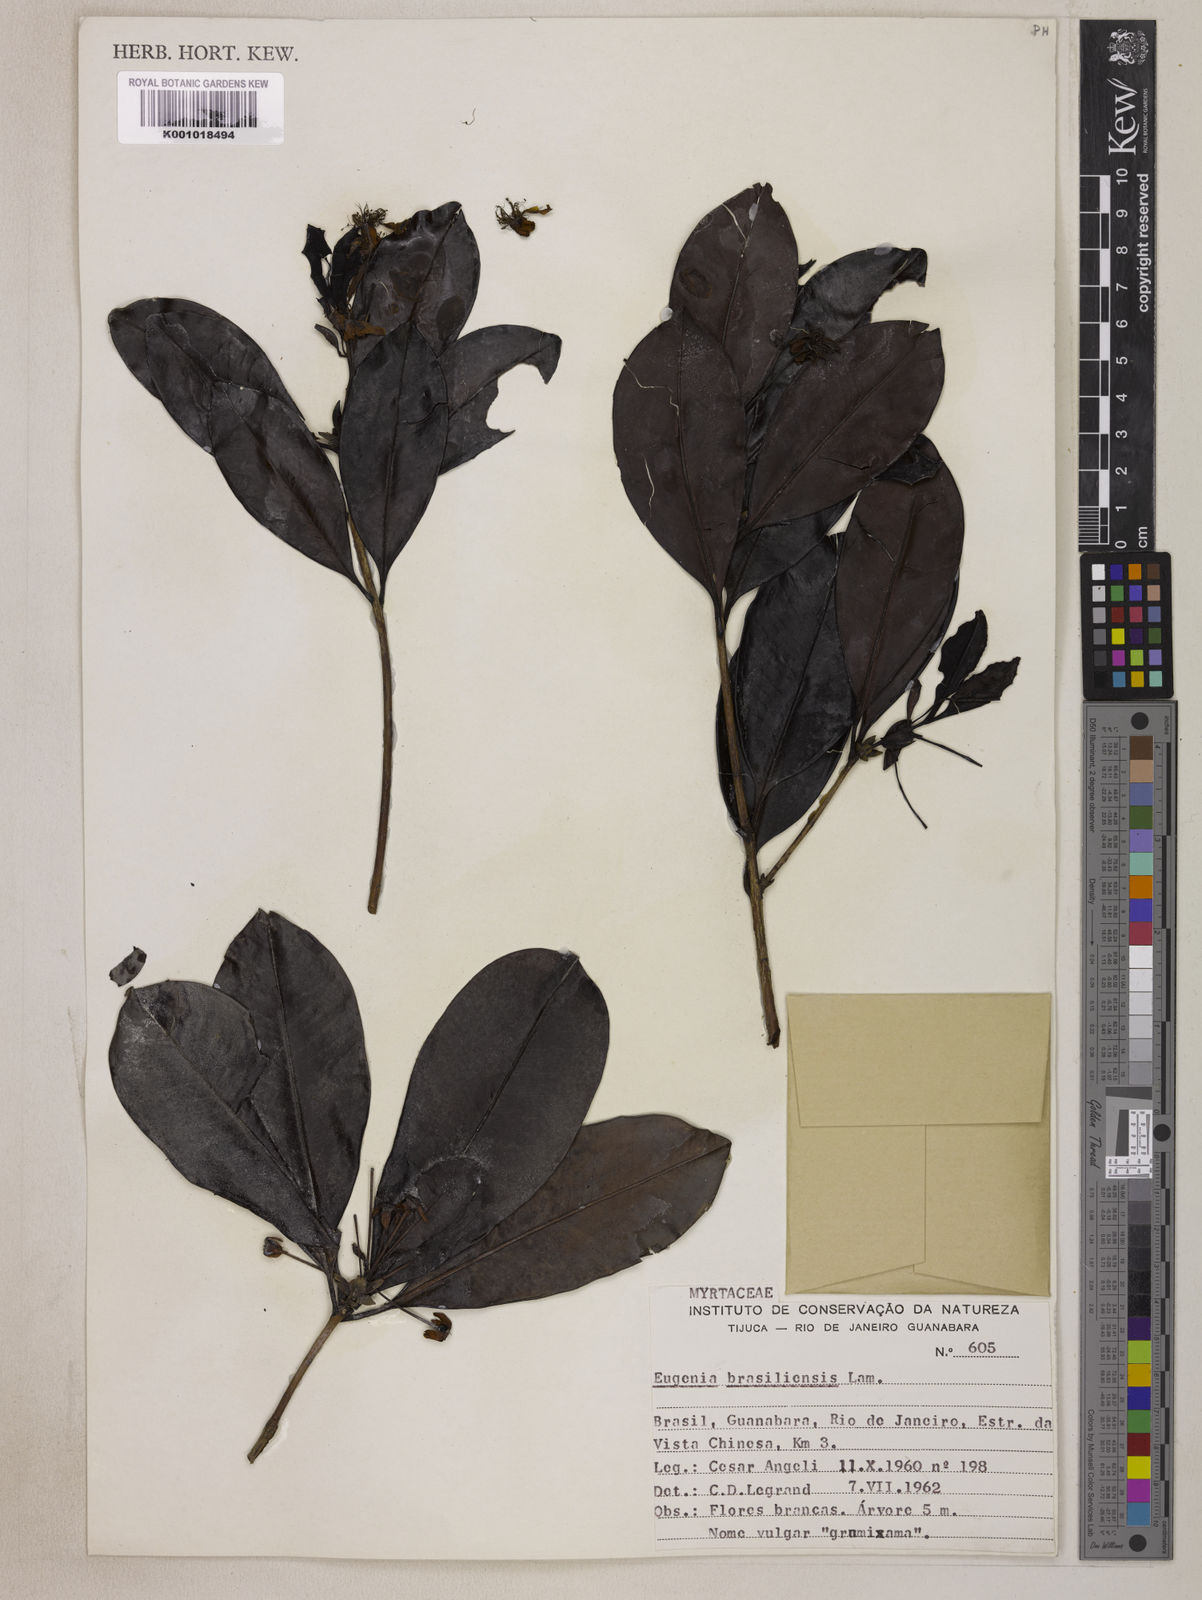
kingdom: Plantae
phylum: Tracheophyta
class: Magnoliopsida
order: Myrtales
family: Myrtaceae
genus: Eugenia
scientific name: Eugenia brasiliensis
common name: Grumichama
